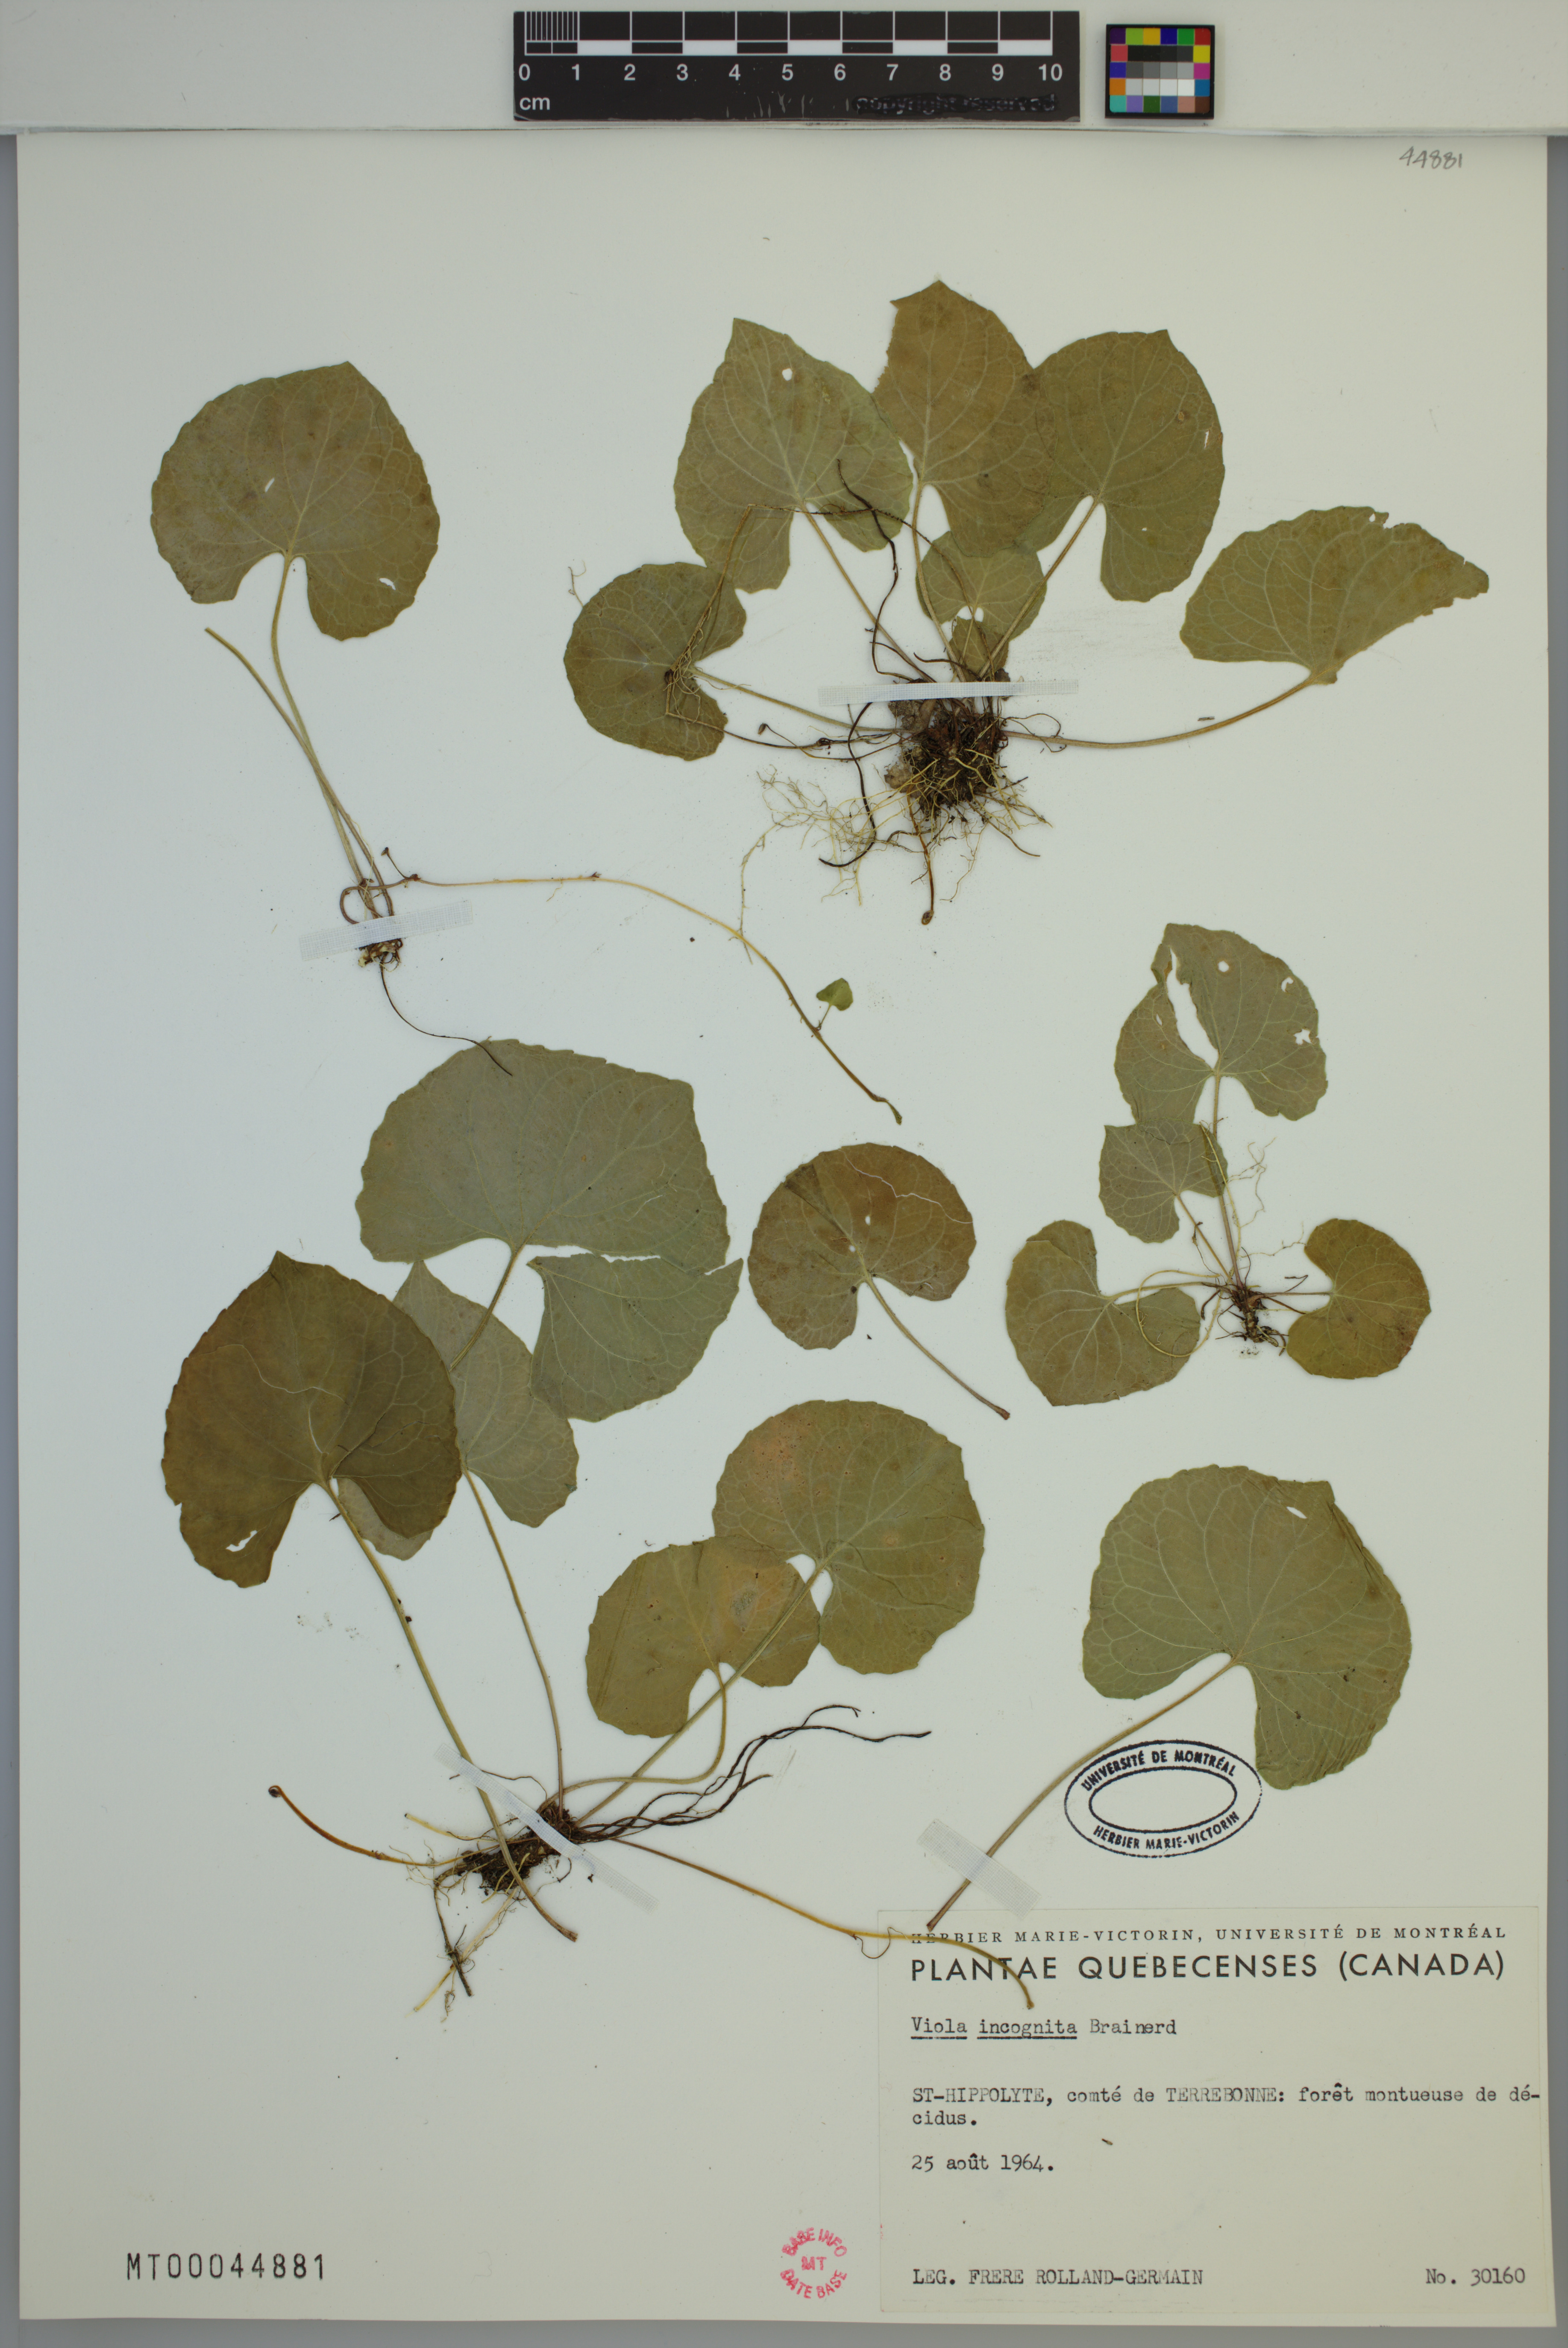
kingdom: Plantae
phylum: Tracheophyta
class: Magnoliopsida
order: Malpighiales
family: Violaceae
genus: Viola
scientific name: Viola blanda
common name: Sweet white violet
